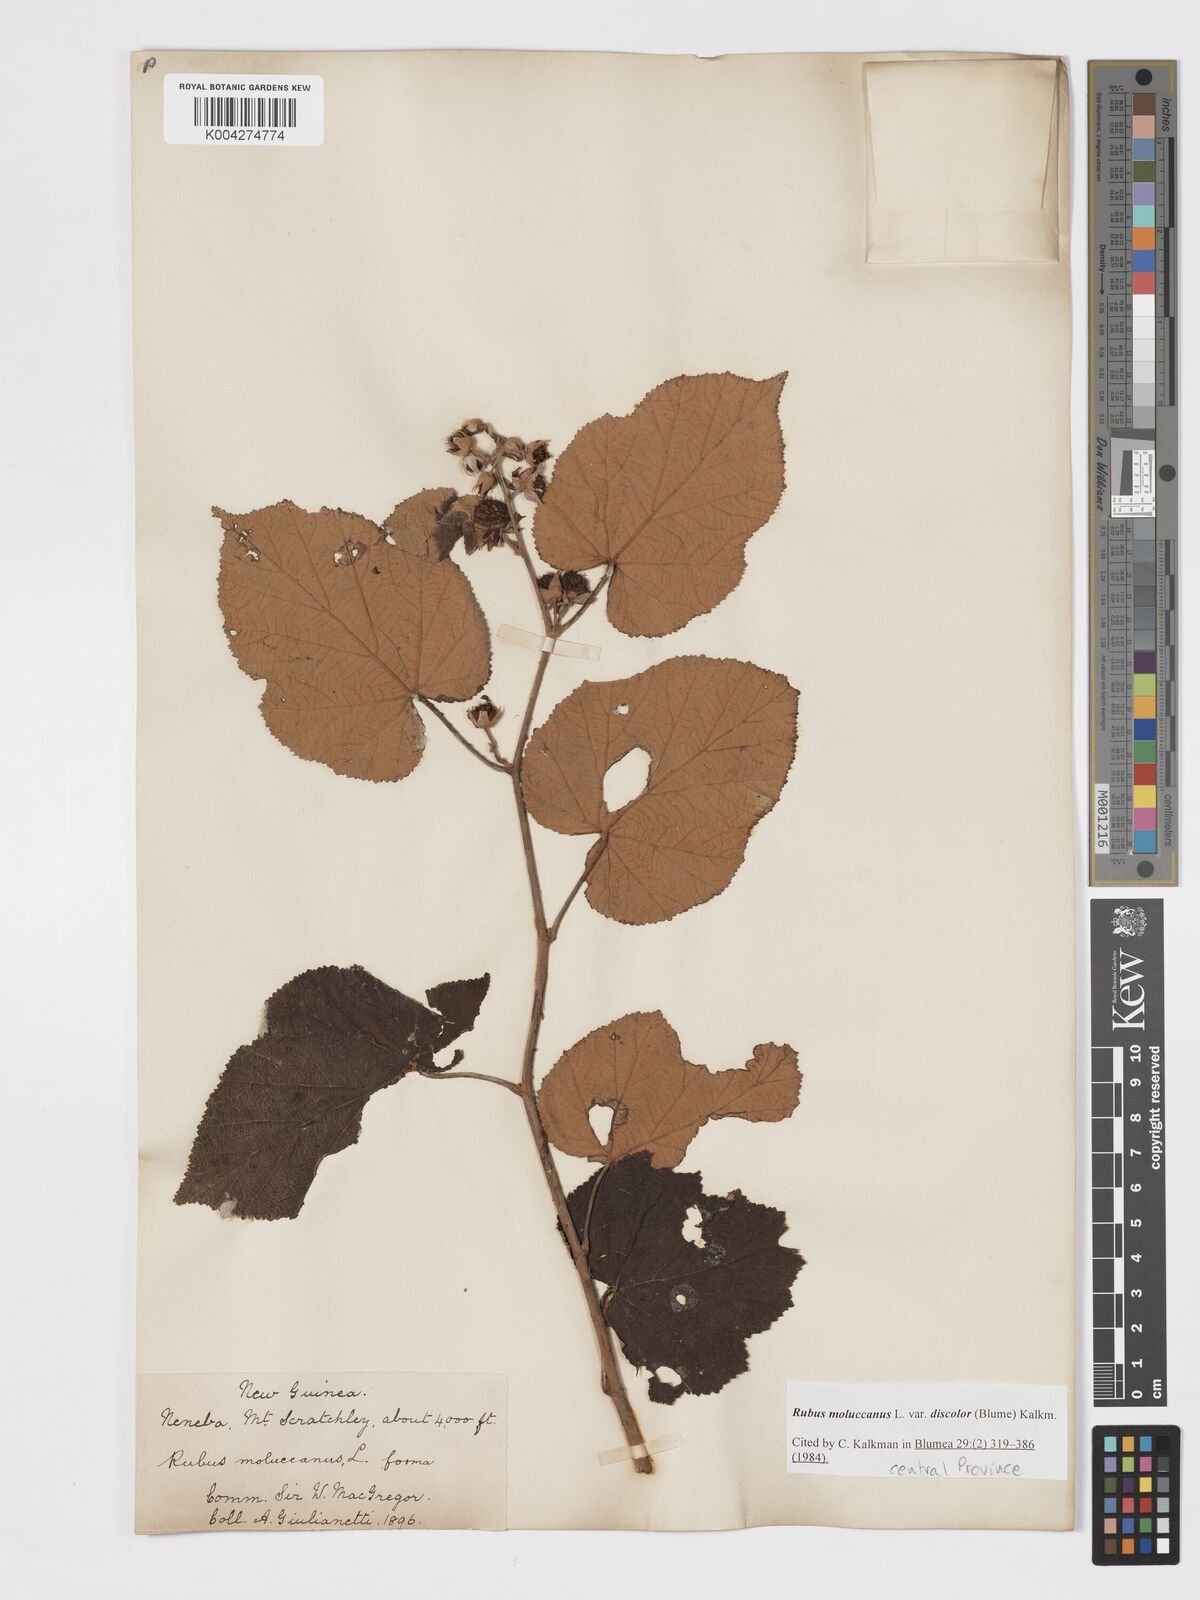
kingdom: Plantae
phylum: Tracheophyta
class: Magnoliopsida
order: Rosales
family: Rosaceae
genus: Rubus
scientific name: Rubus moluccanus
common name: Wild raspberry
